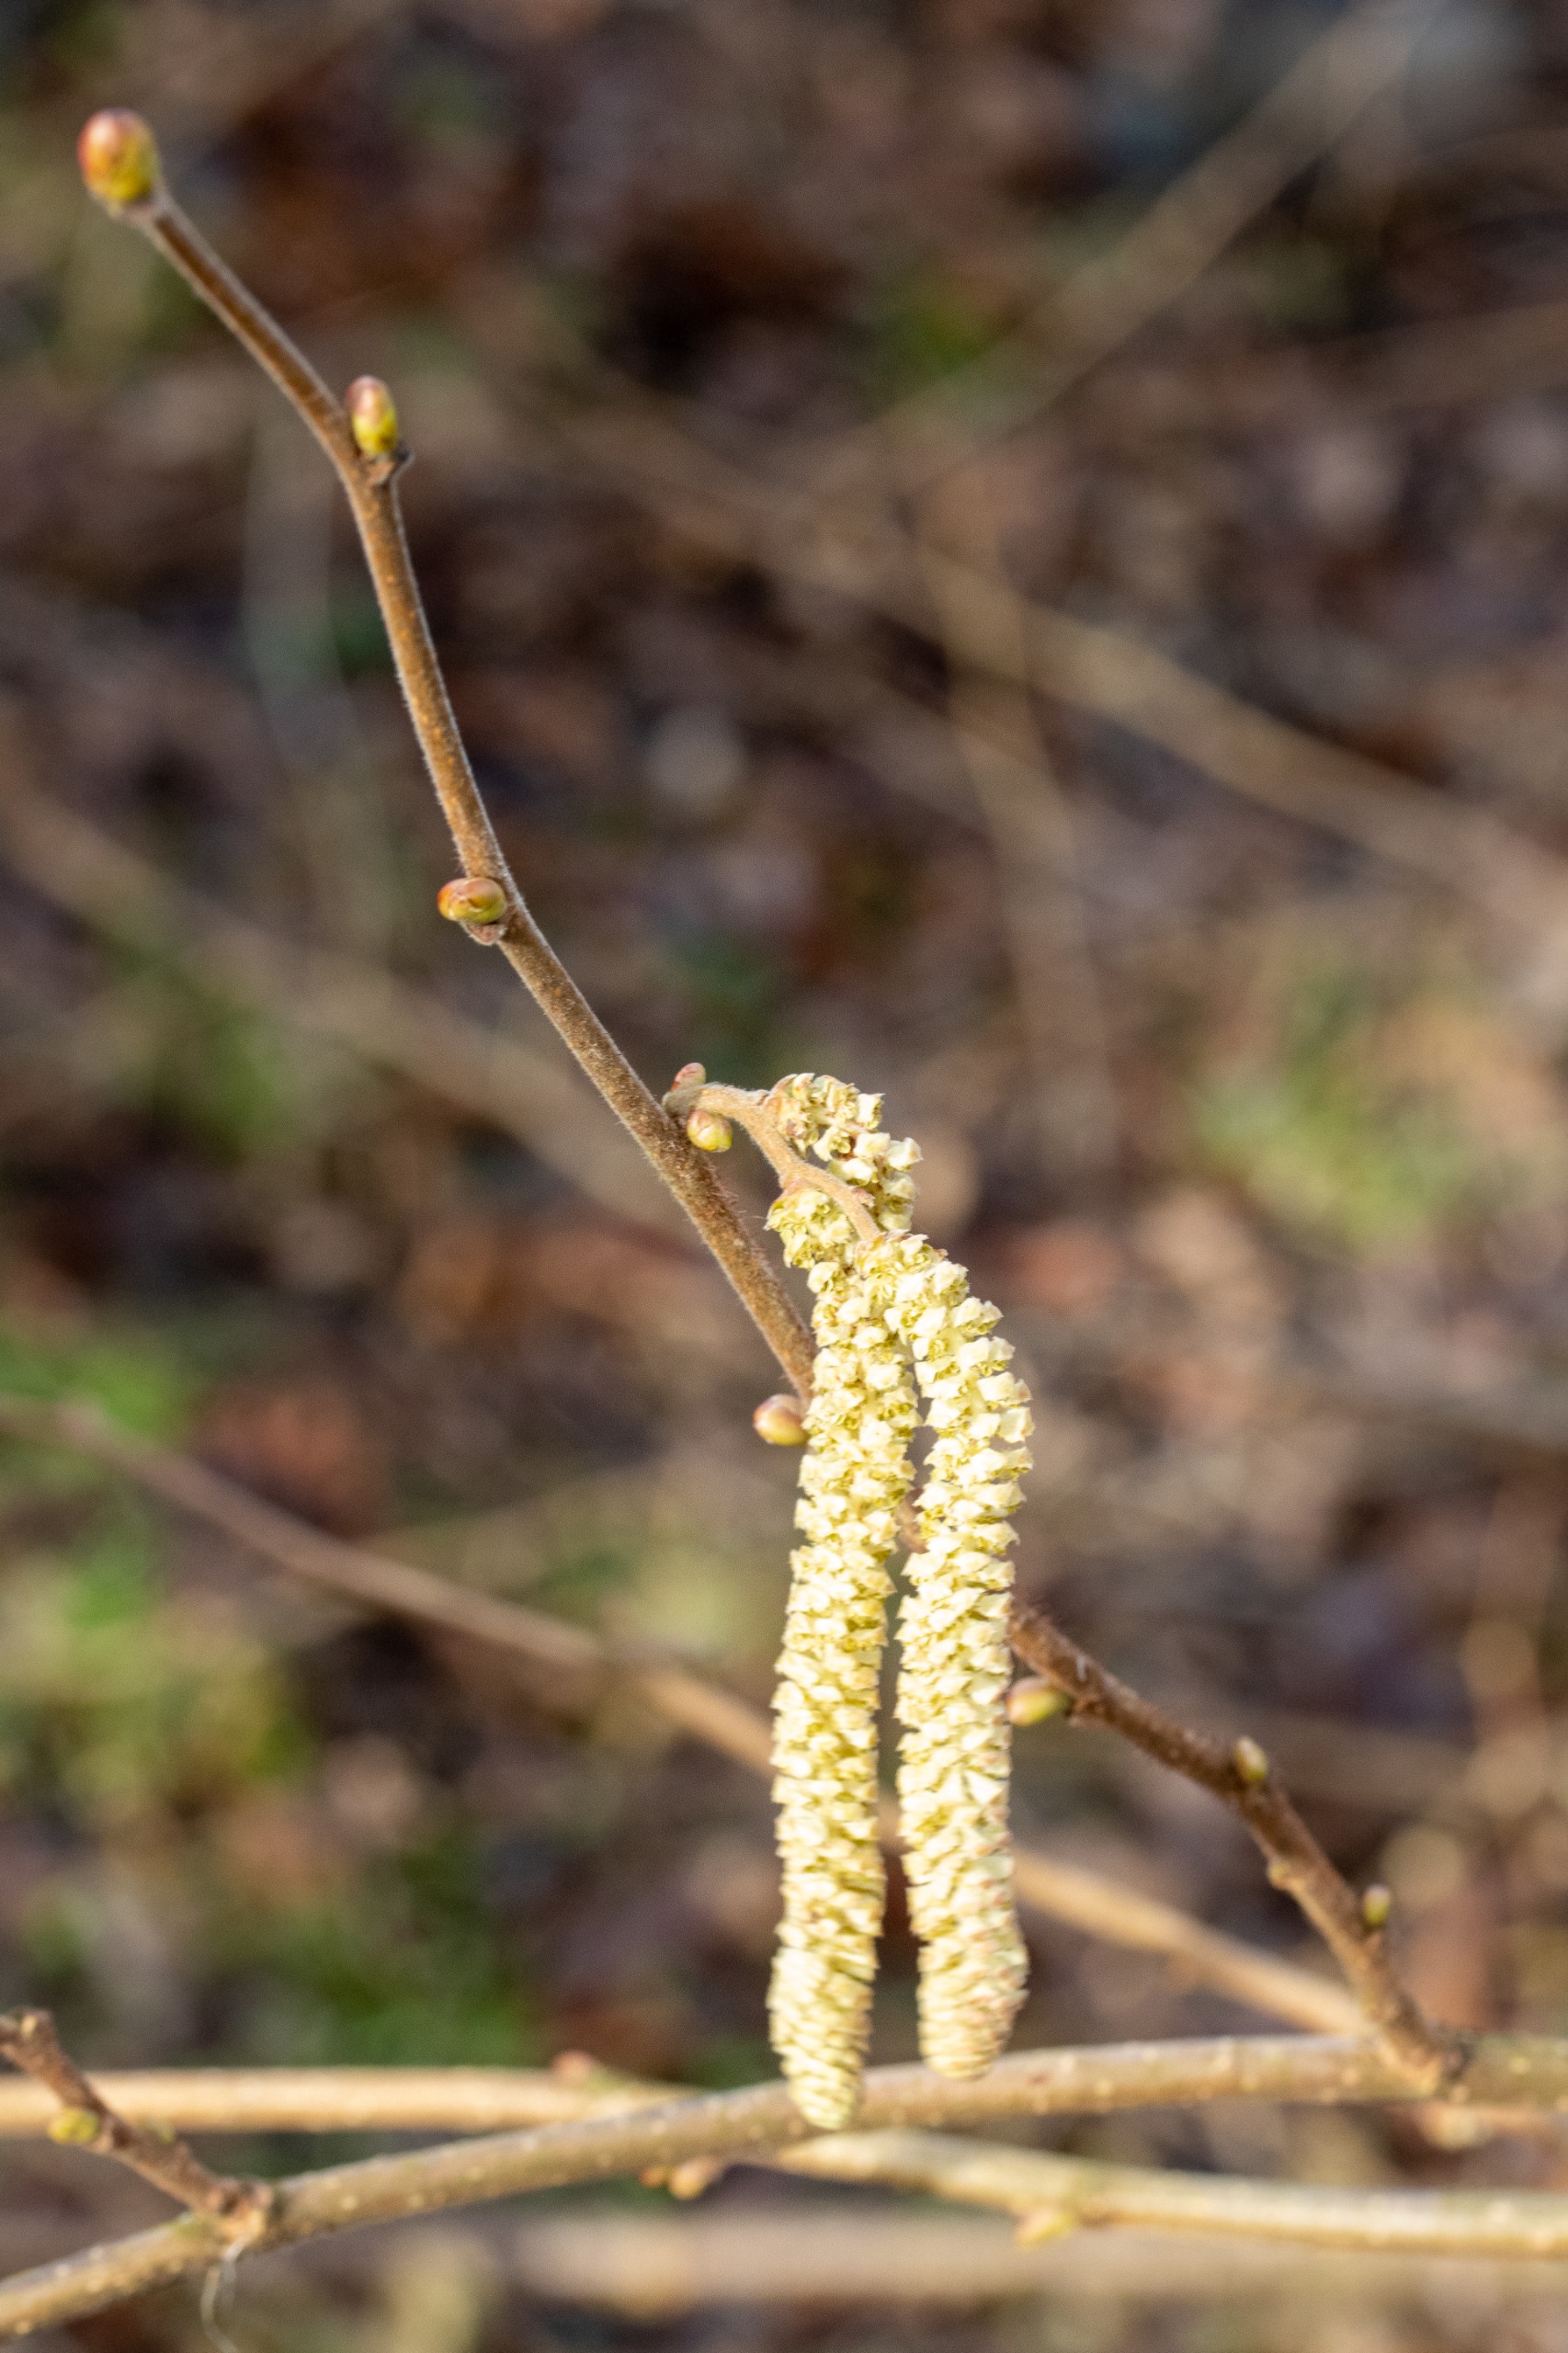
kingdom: Plantae
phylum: Tracheophyta
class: Magnoliopsida
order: Fagales
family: Betulaceae
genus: Corylus
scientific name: Corylus avellana
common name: Hassel
